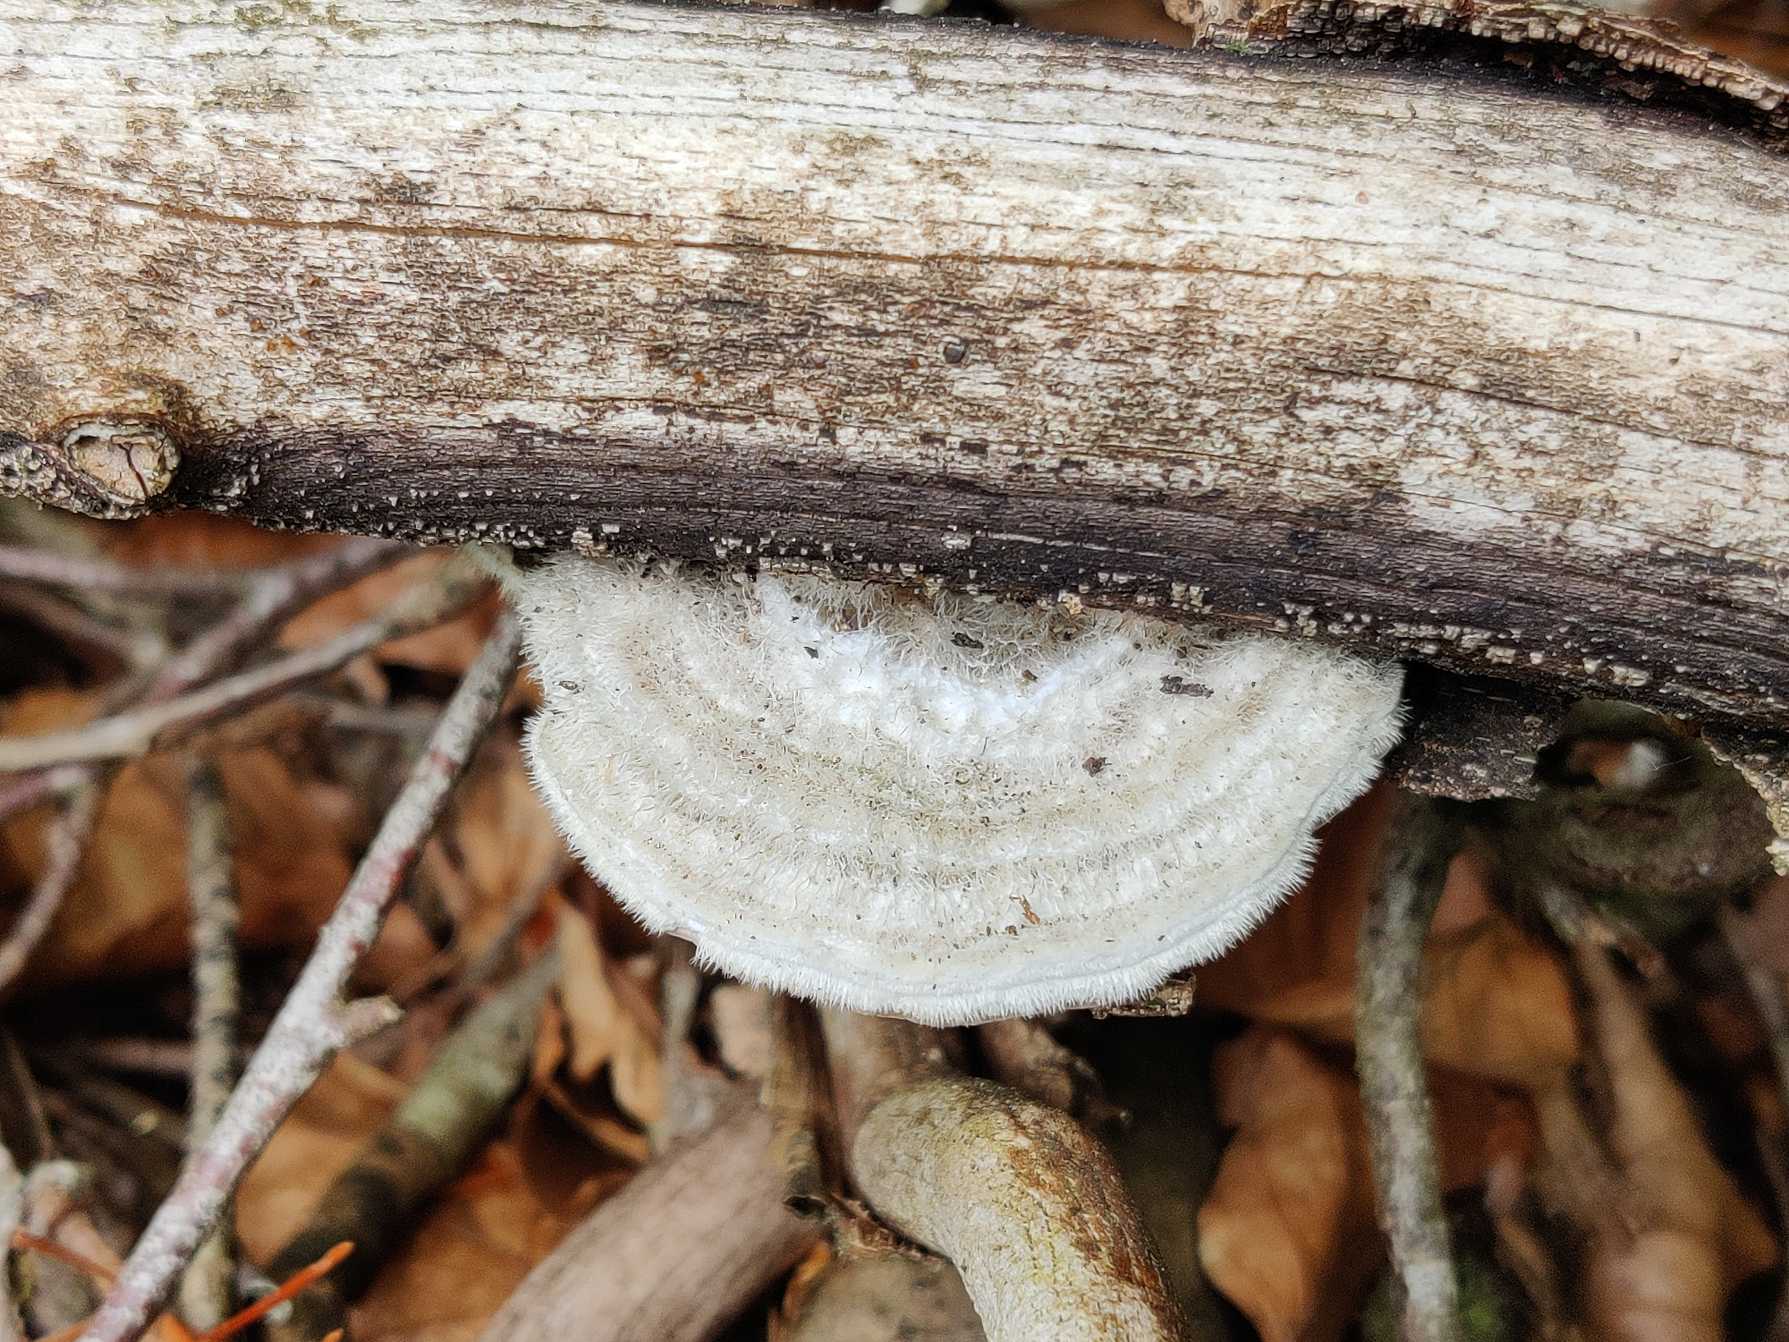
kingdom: Fungi
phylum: Basidiomycota
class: Agaricomycetes
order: Polyporales
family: Polyporaceae
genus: Trametes
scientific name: Trametes hirsuta
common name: Håret læderporesvamp
